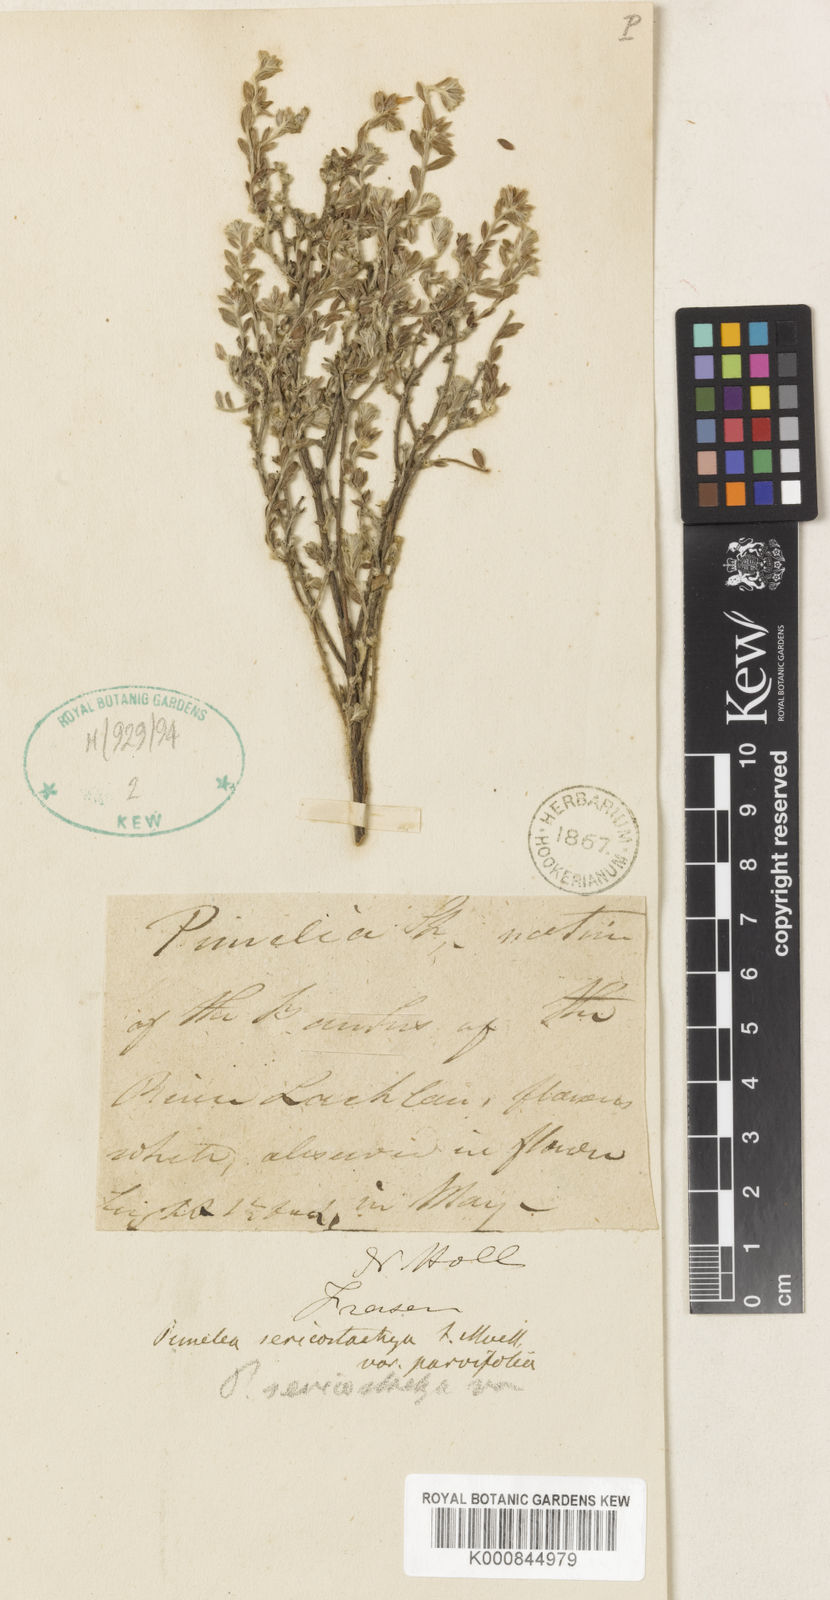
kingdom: Plantae
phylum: Tracheophyta
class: Magnoliopsida
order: Malvales
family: Thymelaeaceae
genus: Pimelea
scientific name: Pimelea sericostachya
